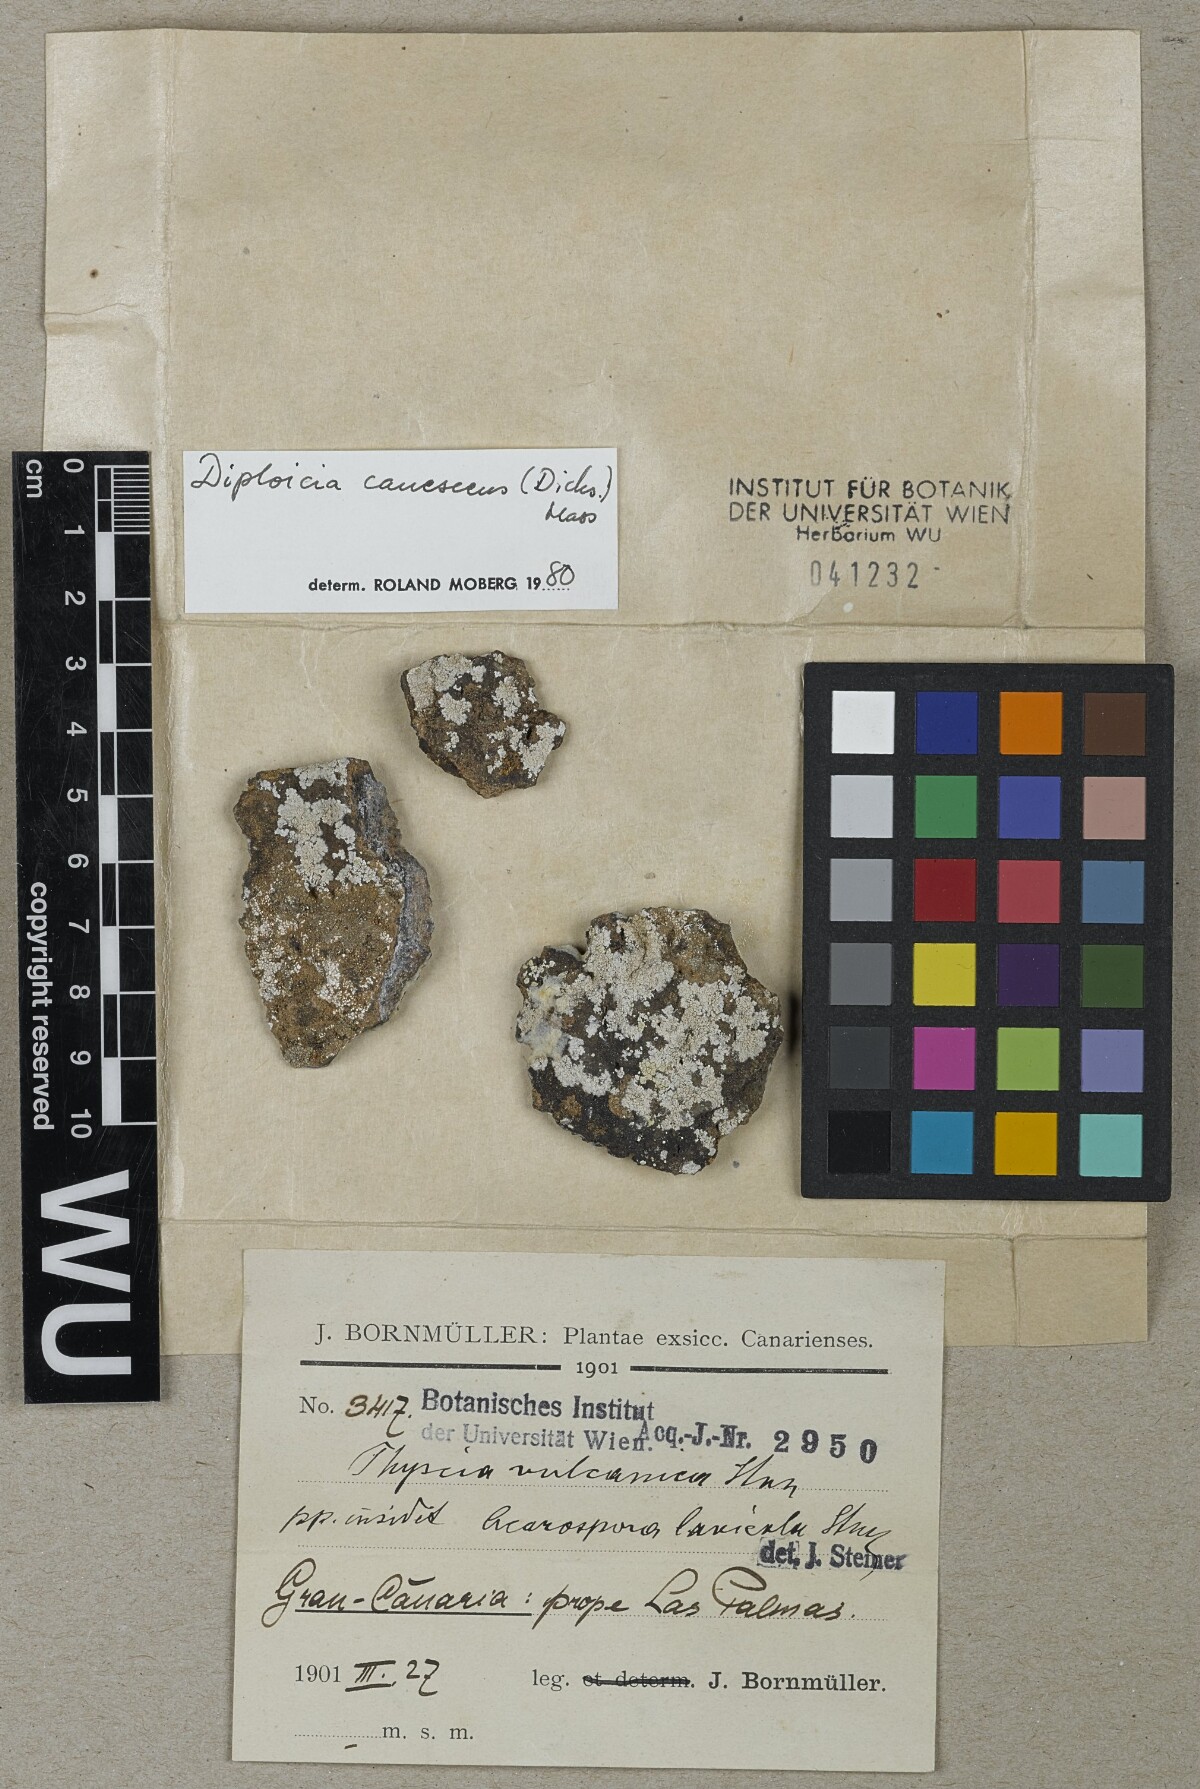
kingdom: Fungi
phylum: Ascomycota
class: Lecanoromycetes
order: Caliciales
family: Physciaceae
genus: Physcia
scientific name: Physcia
